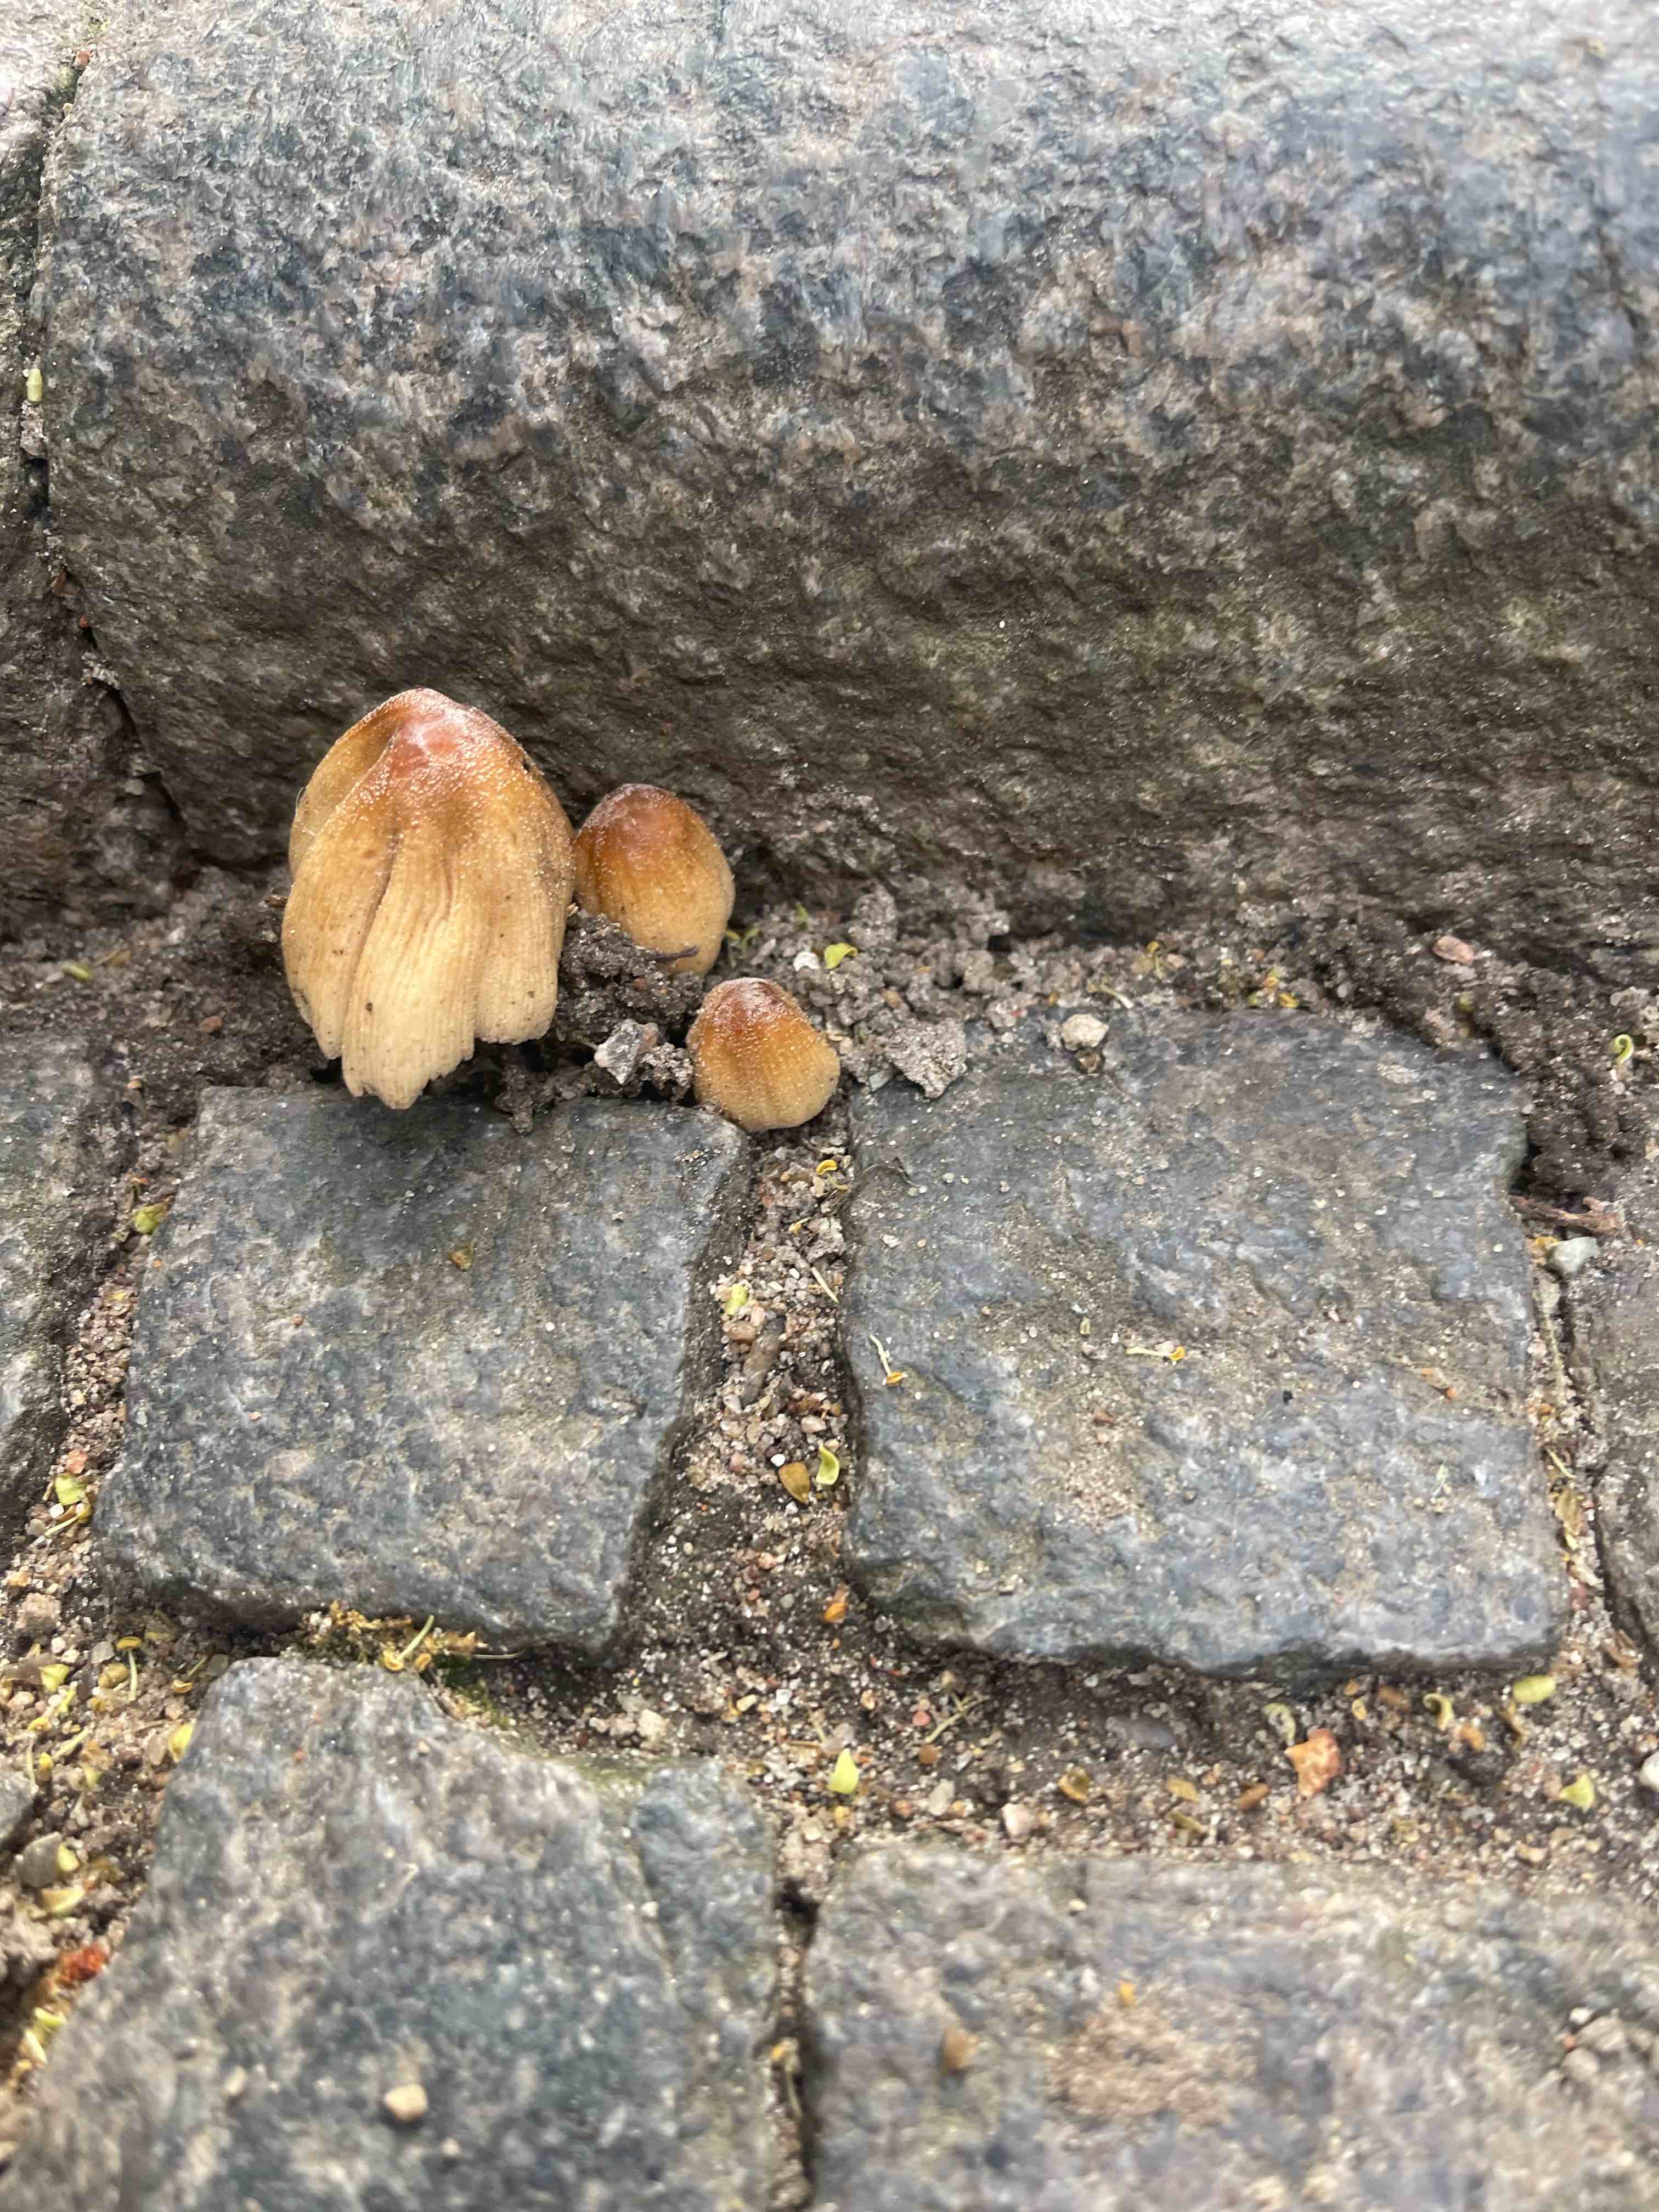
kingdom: Fungi
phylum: Basidiomycota
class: Agaricomycetes
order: Agaricales
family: Psathyrellaceae
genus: Coprinellus
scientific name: Coprinellus micaceus
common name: glimmer-blækhat
